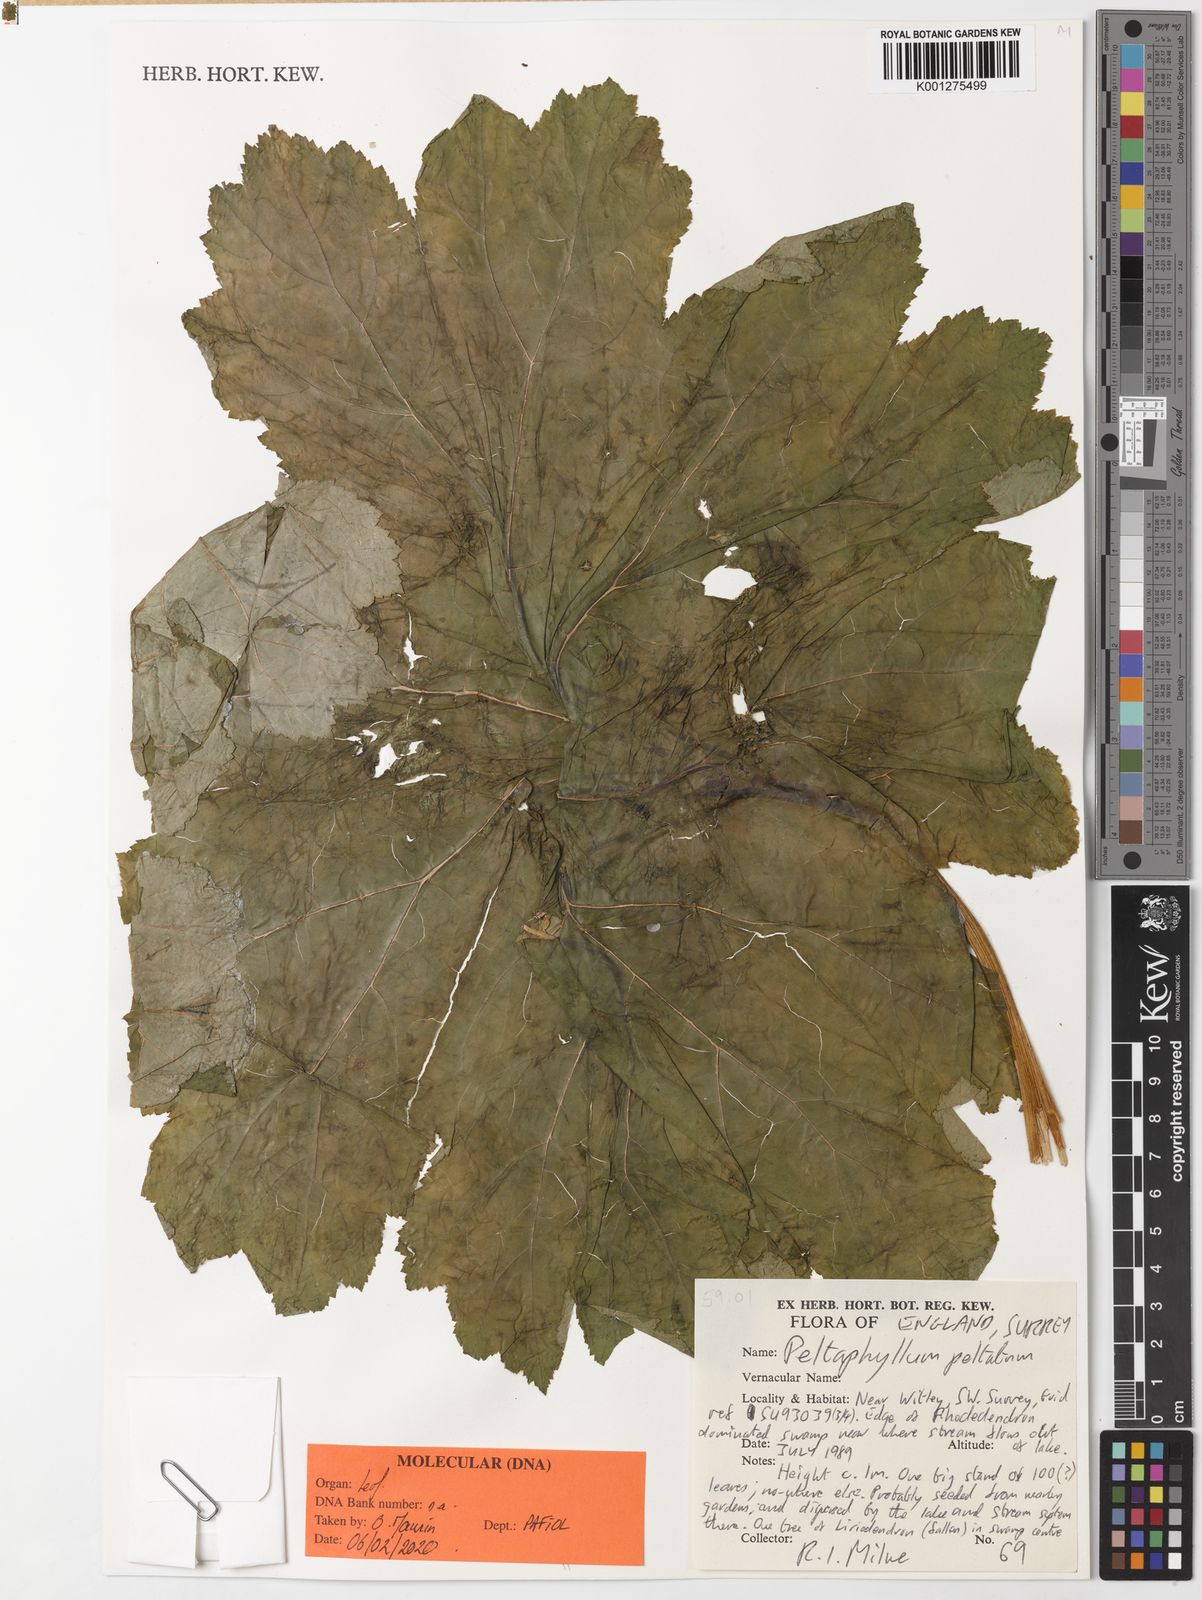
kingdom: Plantae
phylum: Tracheophyta
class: Magnoliopsida
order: Saxifragales
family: Saxifragaceae
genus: Darmera
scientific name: Darmera peltata
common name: Indian-rhubarb
